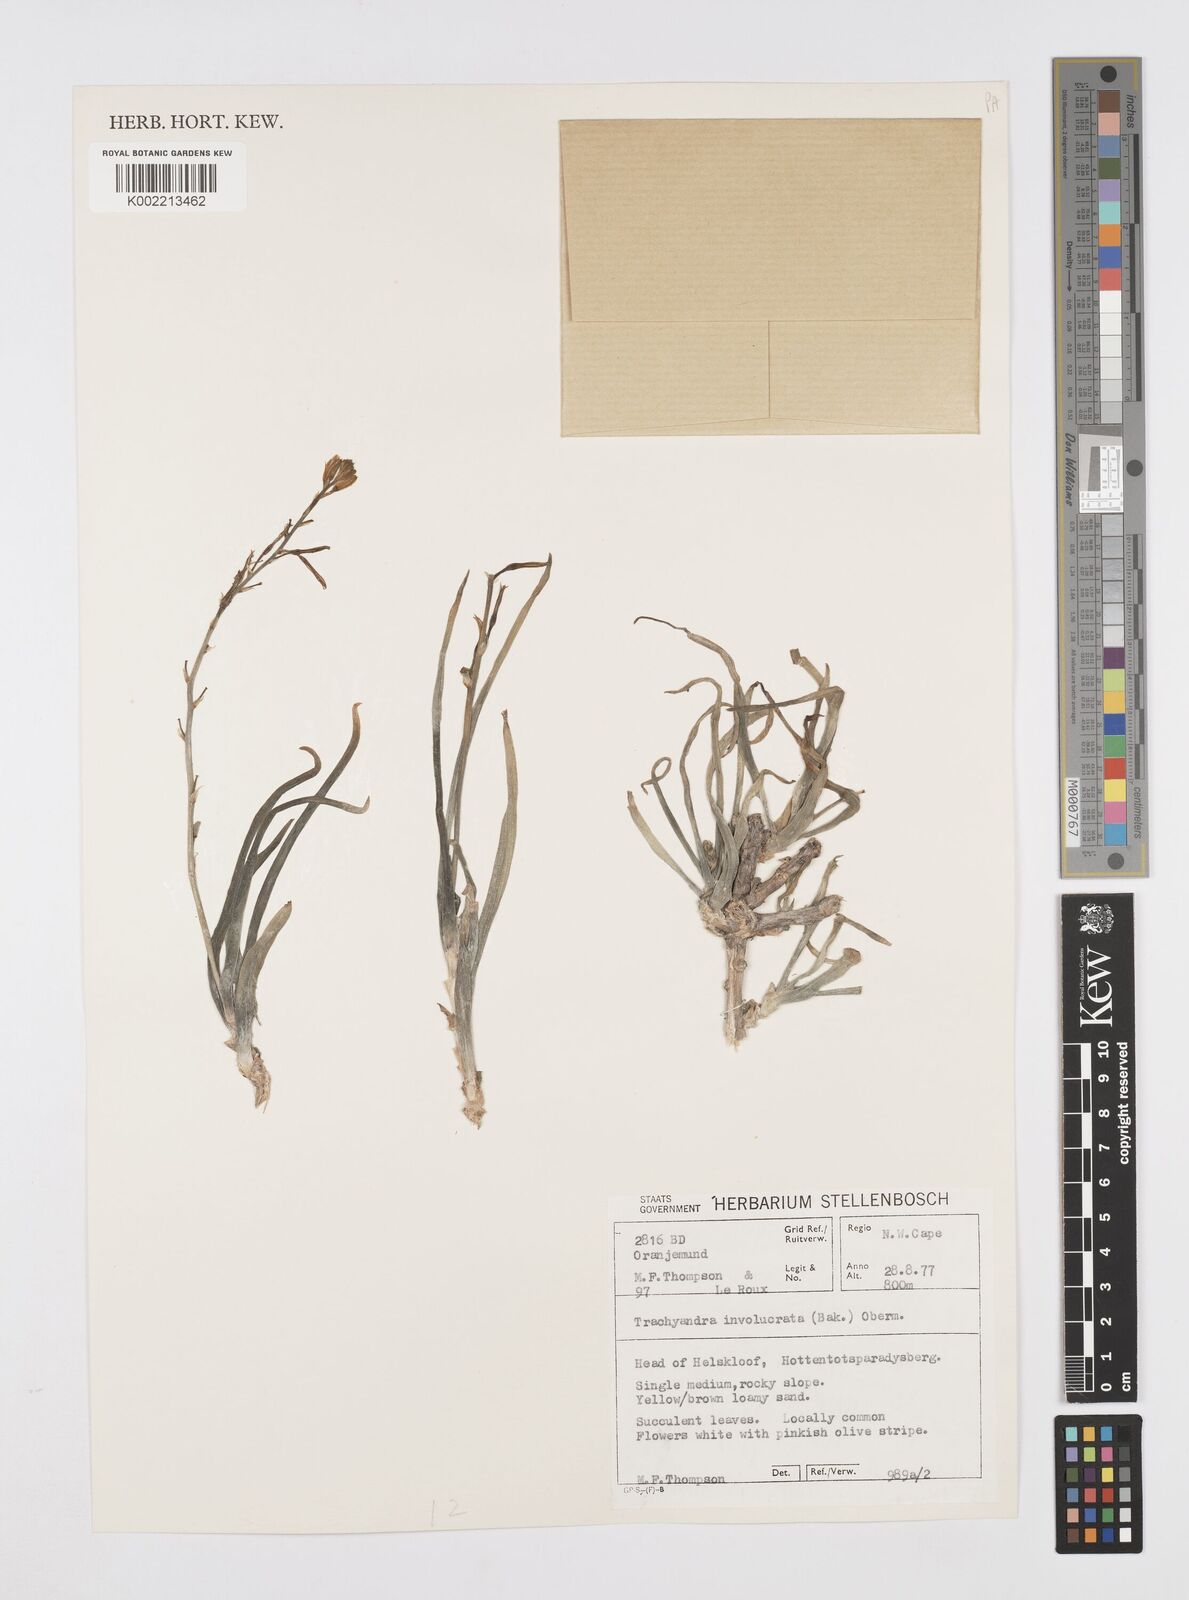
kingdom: Plantae
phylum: Tracheophyta
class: Liliopsida
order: Asparagales
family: Asphodelaceae
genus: Trachyandra
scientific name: Trachyandra involucrata
